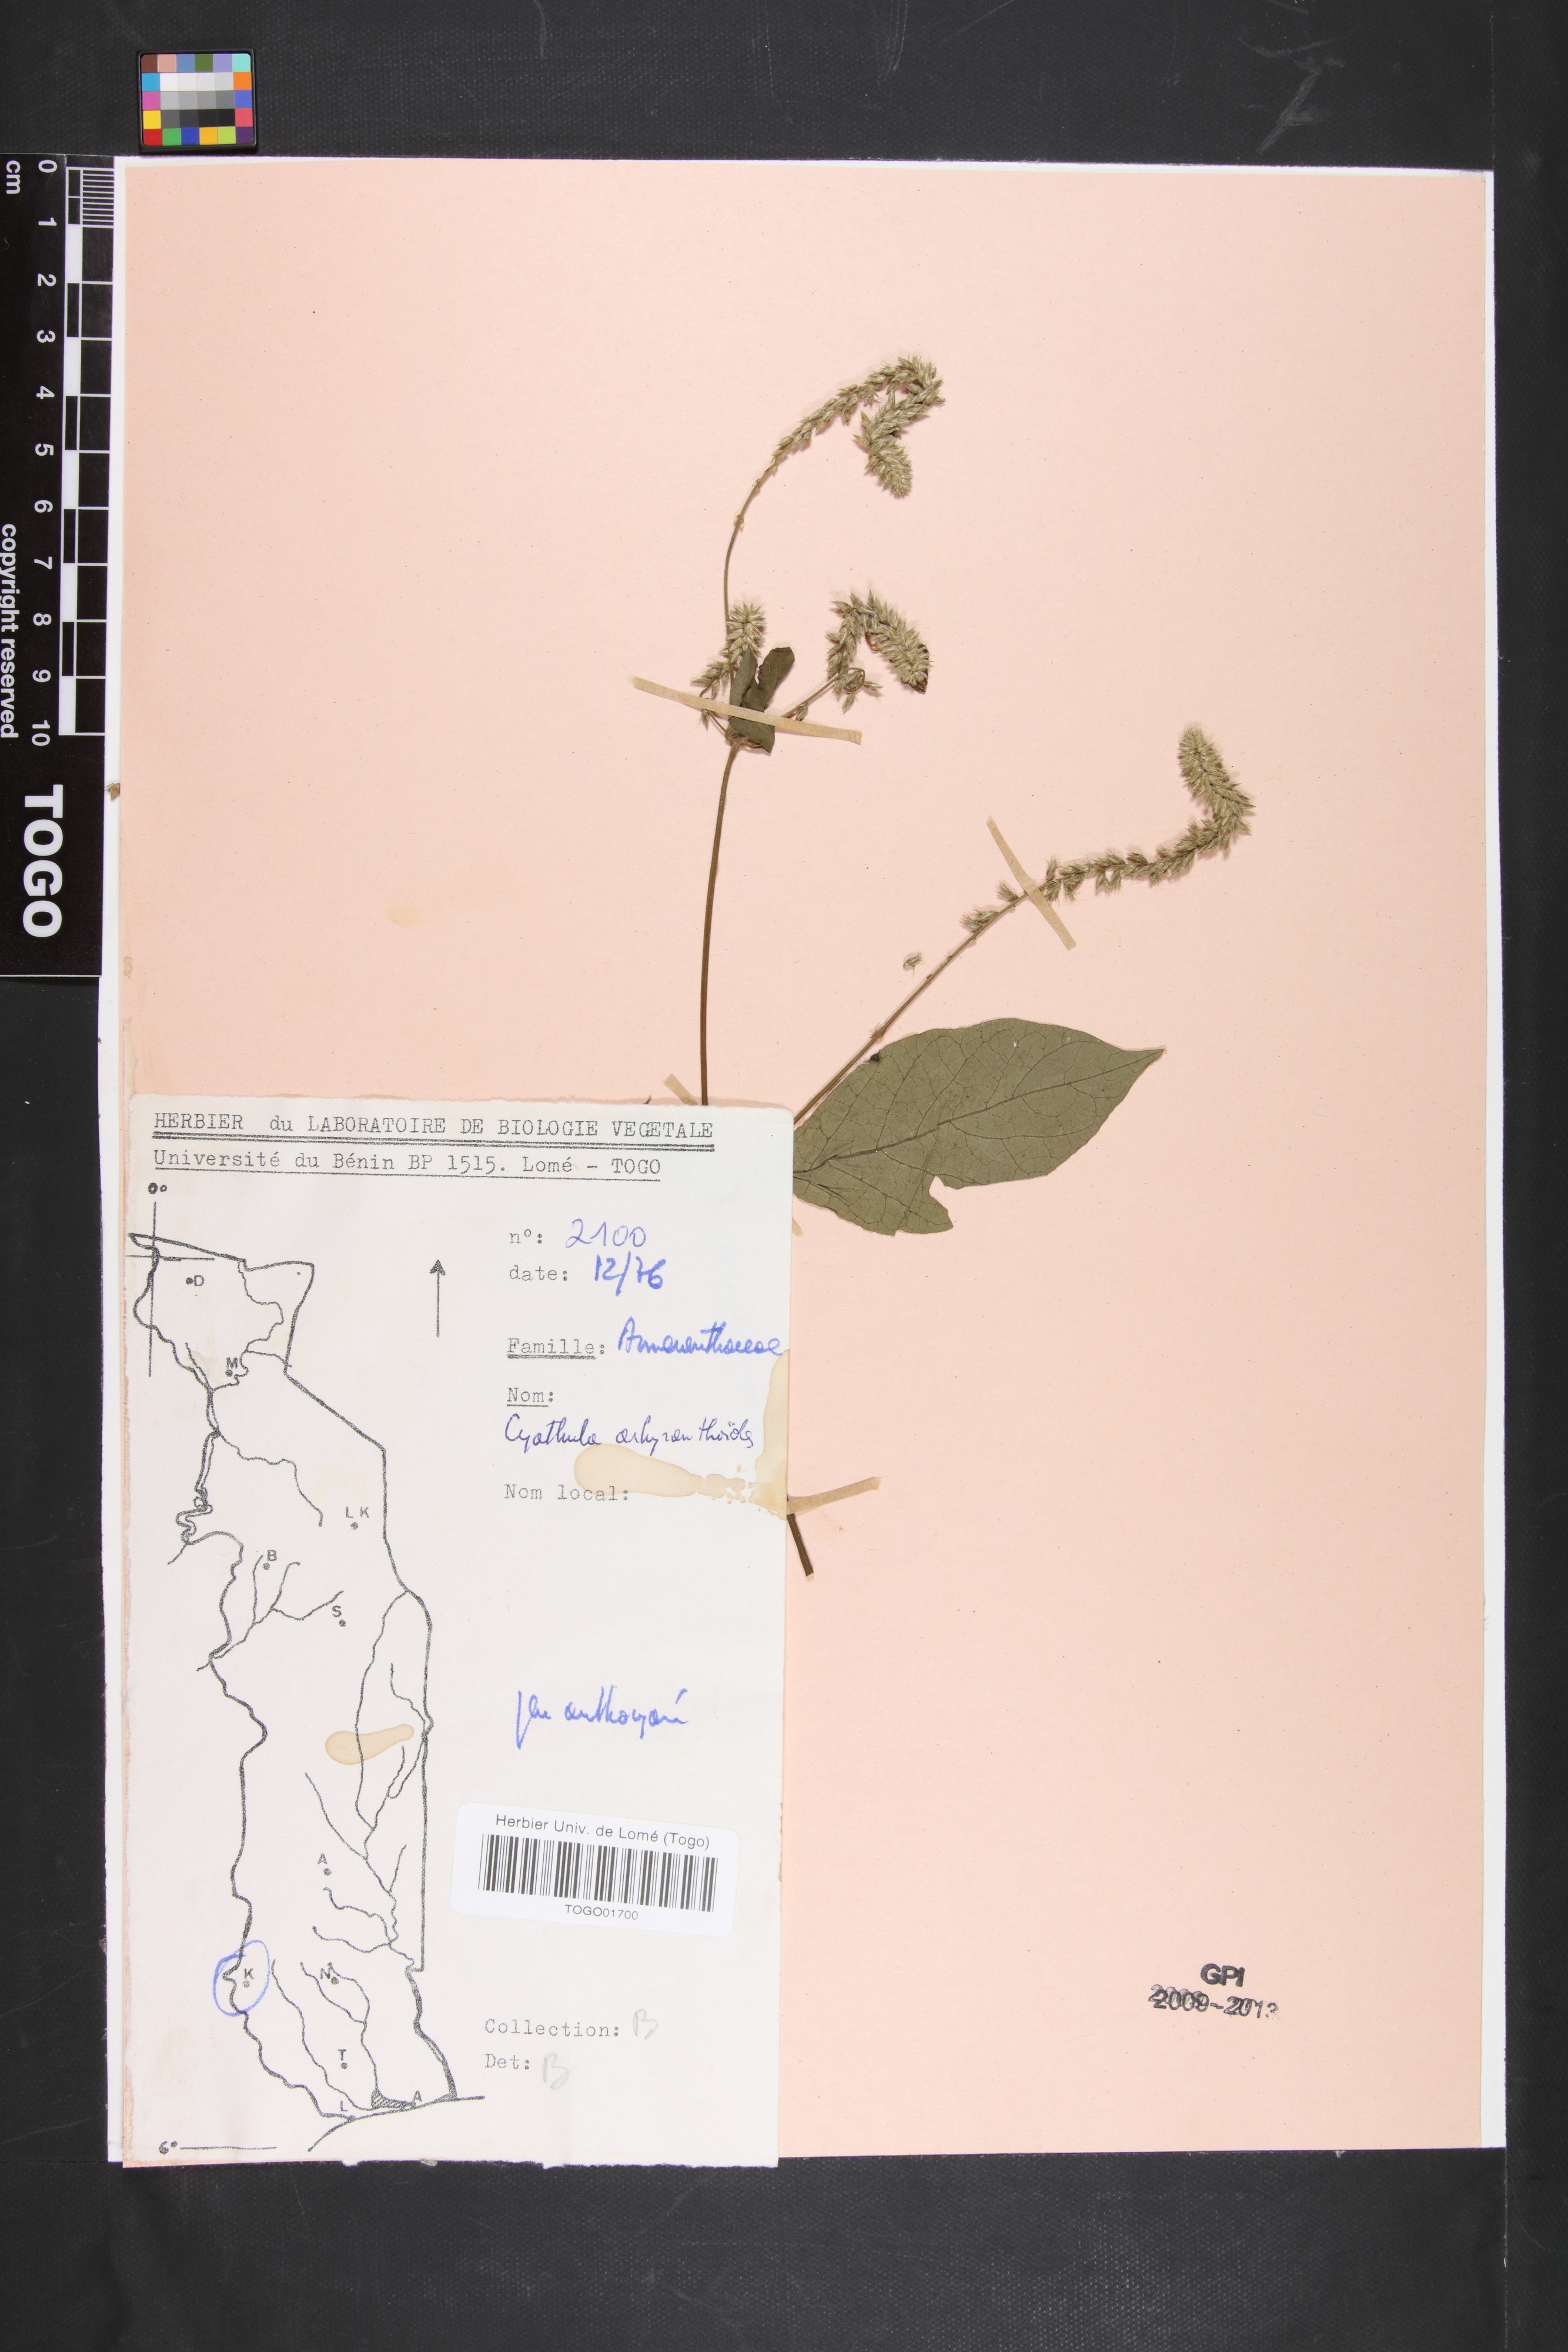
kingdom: Plantae
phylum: Tracheophyta
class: Magnoliopsida
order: Caryophyllales
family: Amaranthaceae
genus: Cyathula
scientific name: Cyathula achyranthoides
